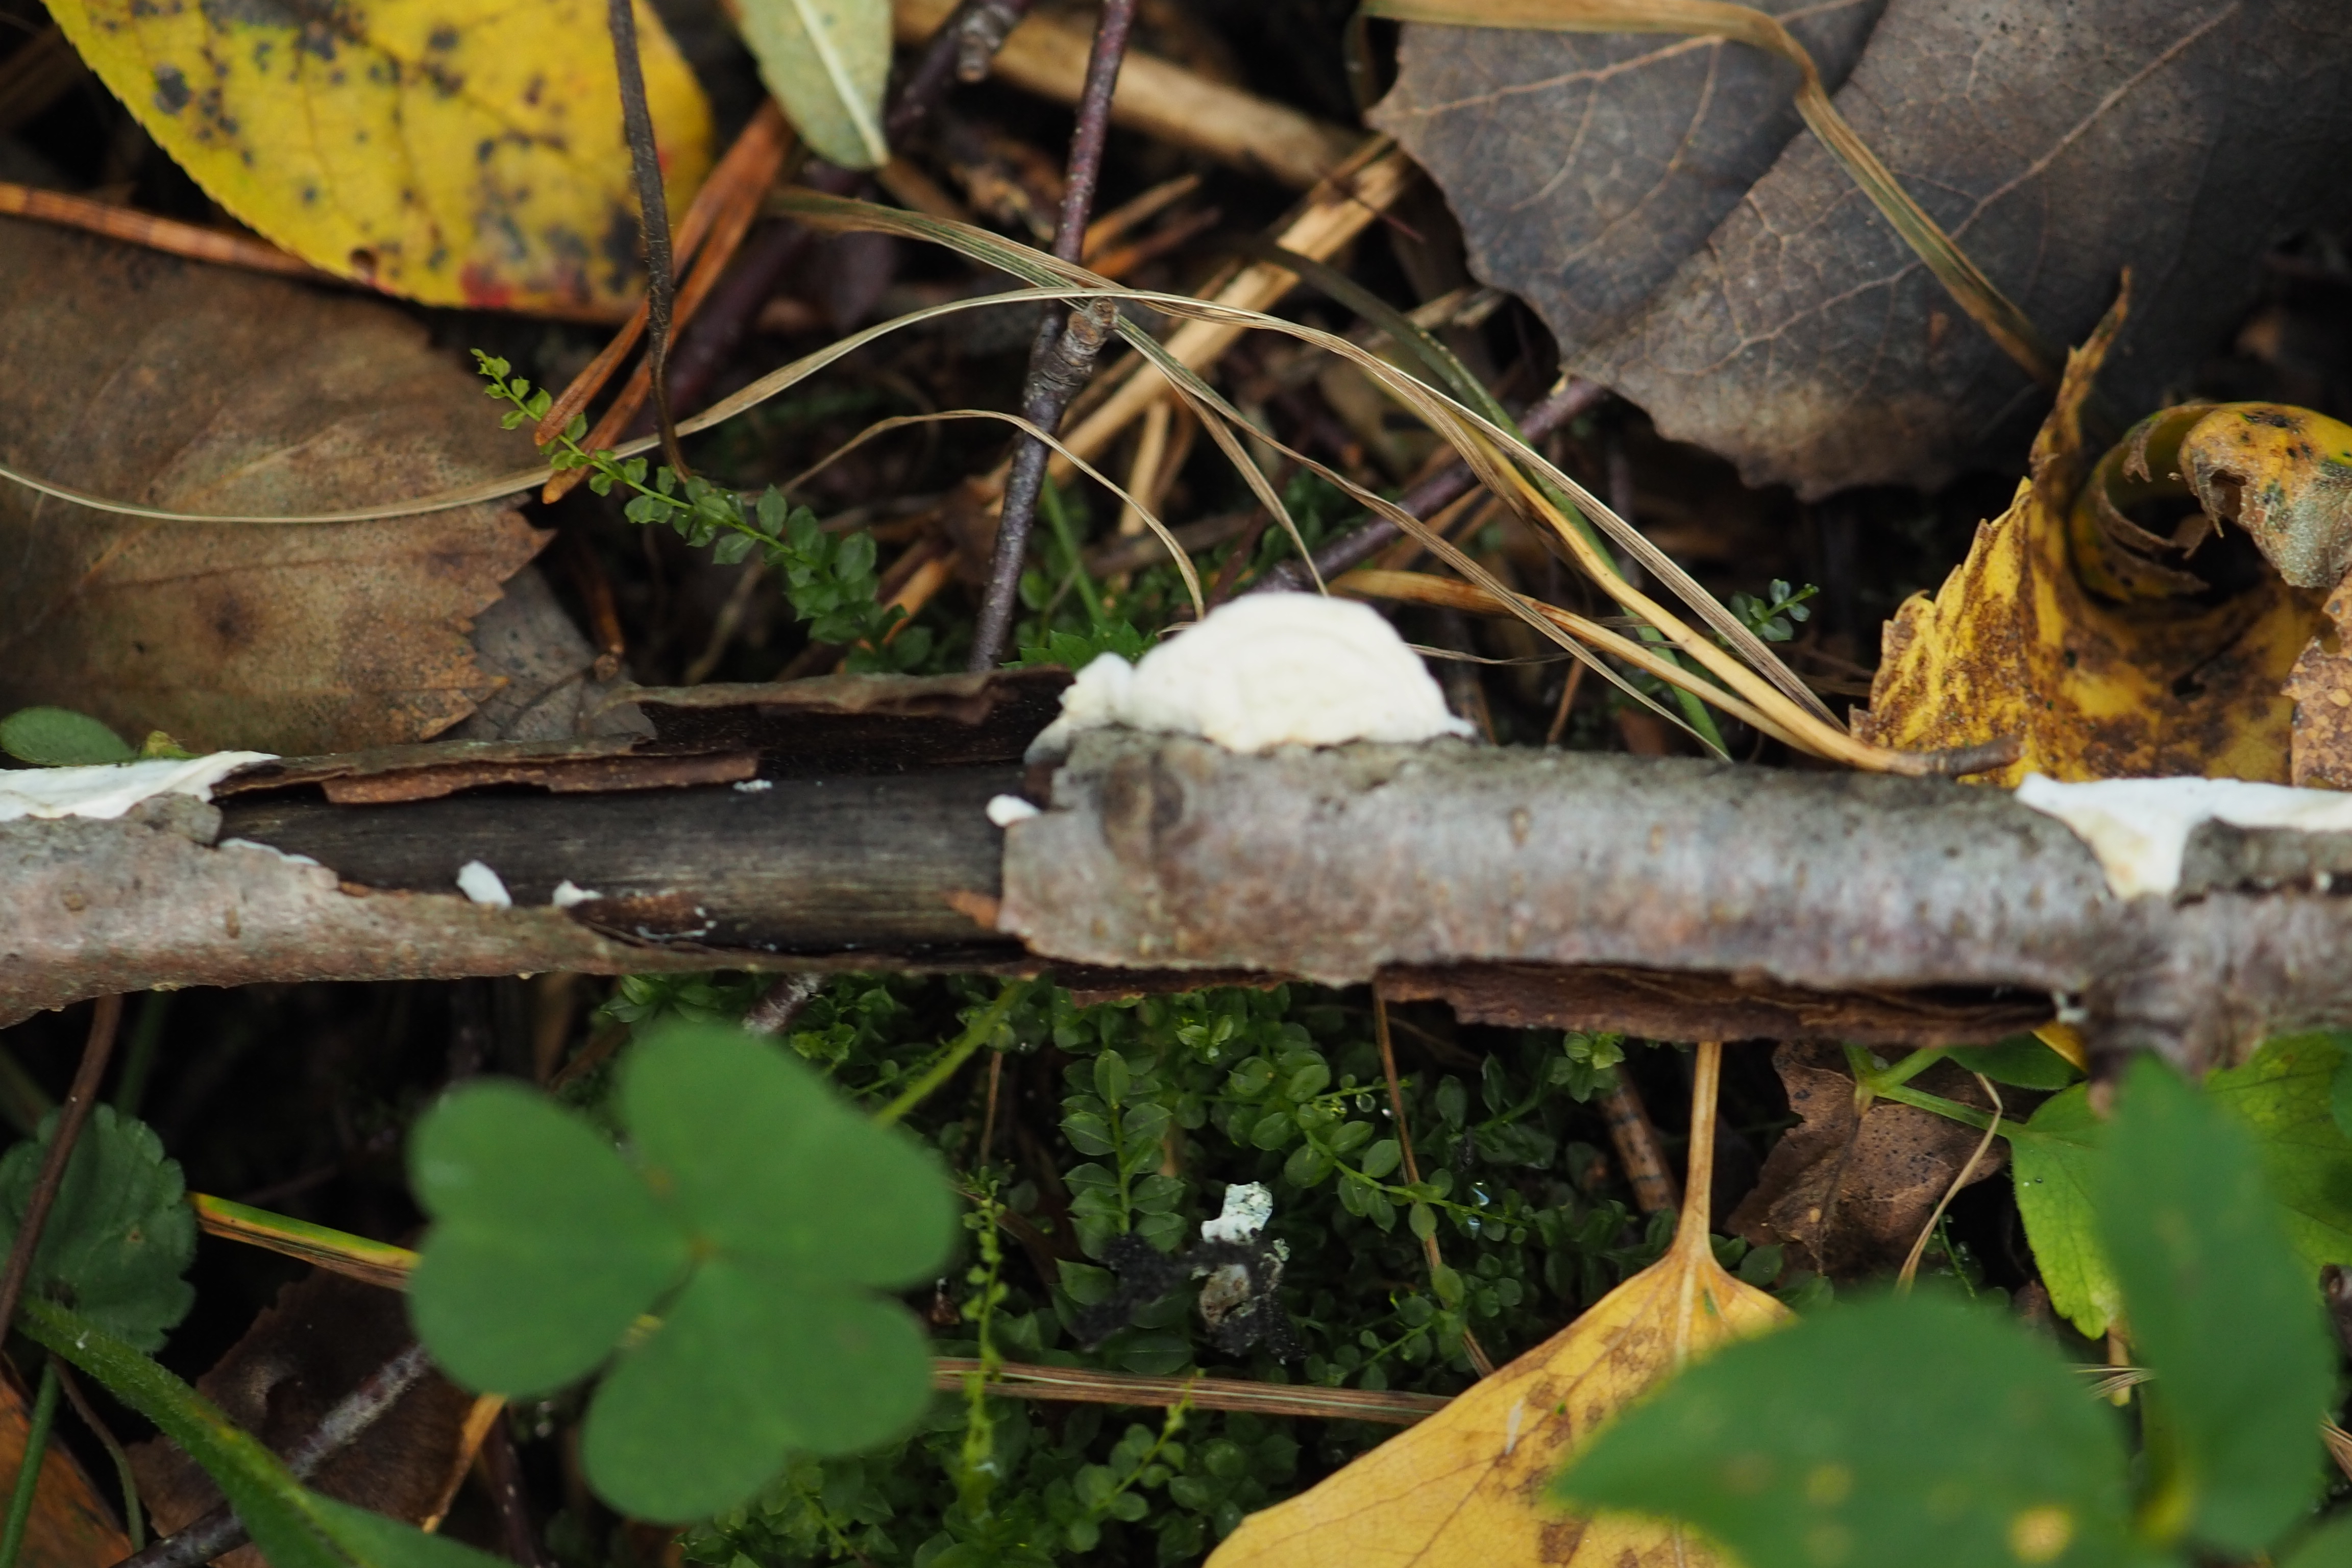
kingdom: Fungi
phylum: Basidiomycota
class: Agaricomycetes
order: Agaricales
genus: Plicatura
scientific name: Plicatura nivea
